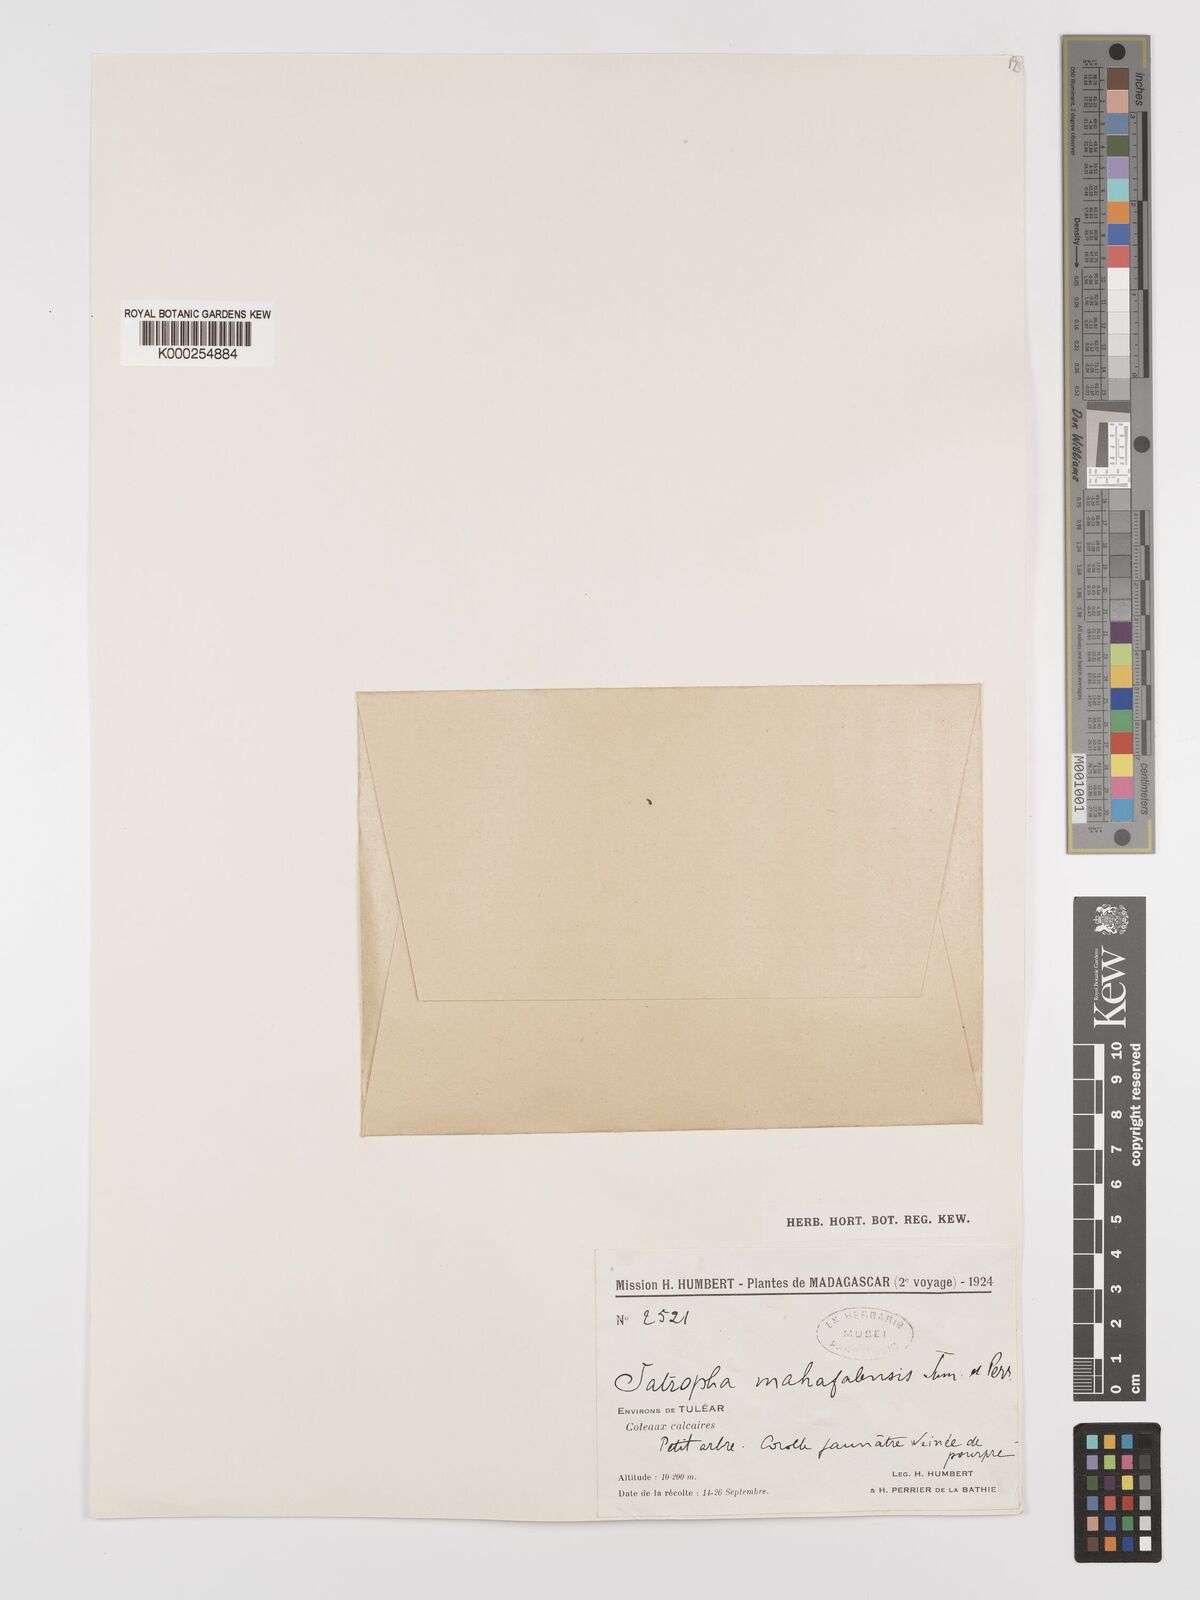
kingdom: Plantae
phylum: Tracheophyta
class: Magnoliopsida
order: Malpighiales
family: Euphorbiaceae
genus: Jatropha
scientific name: Jatropha mahafalensis
